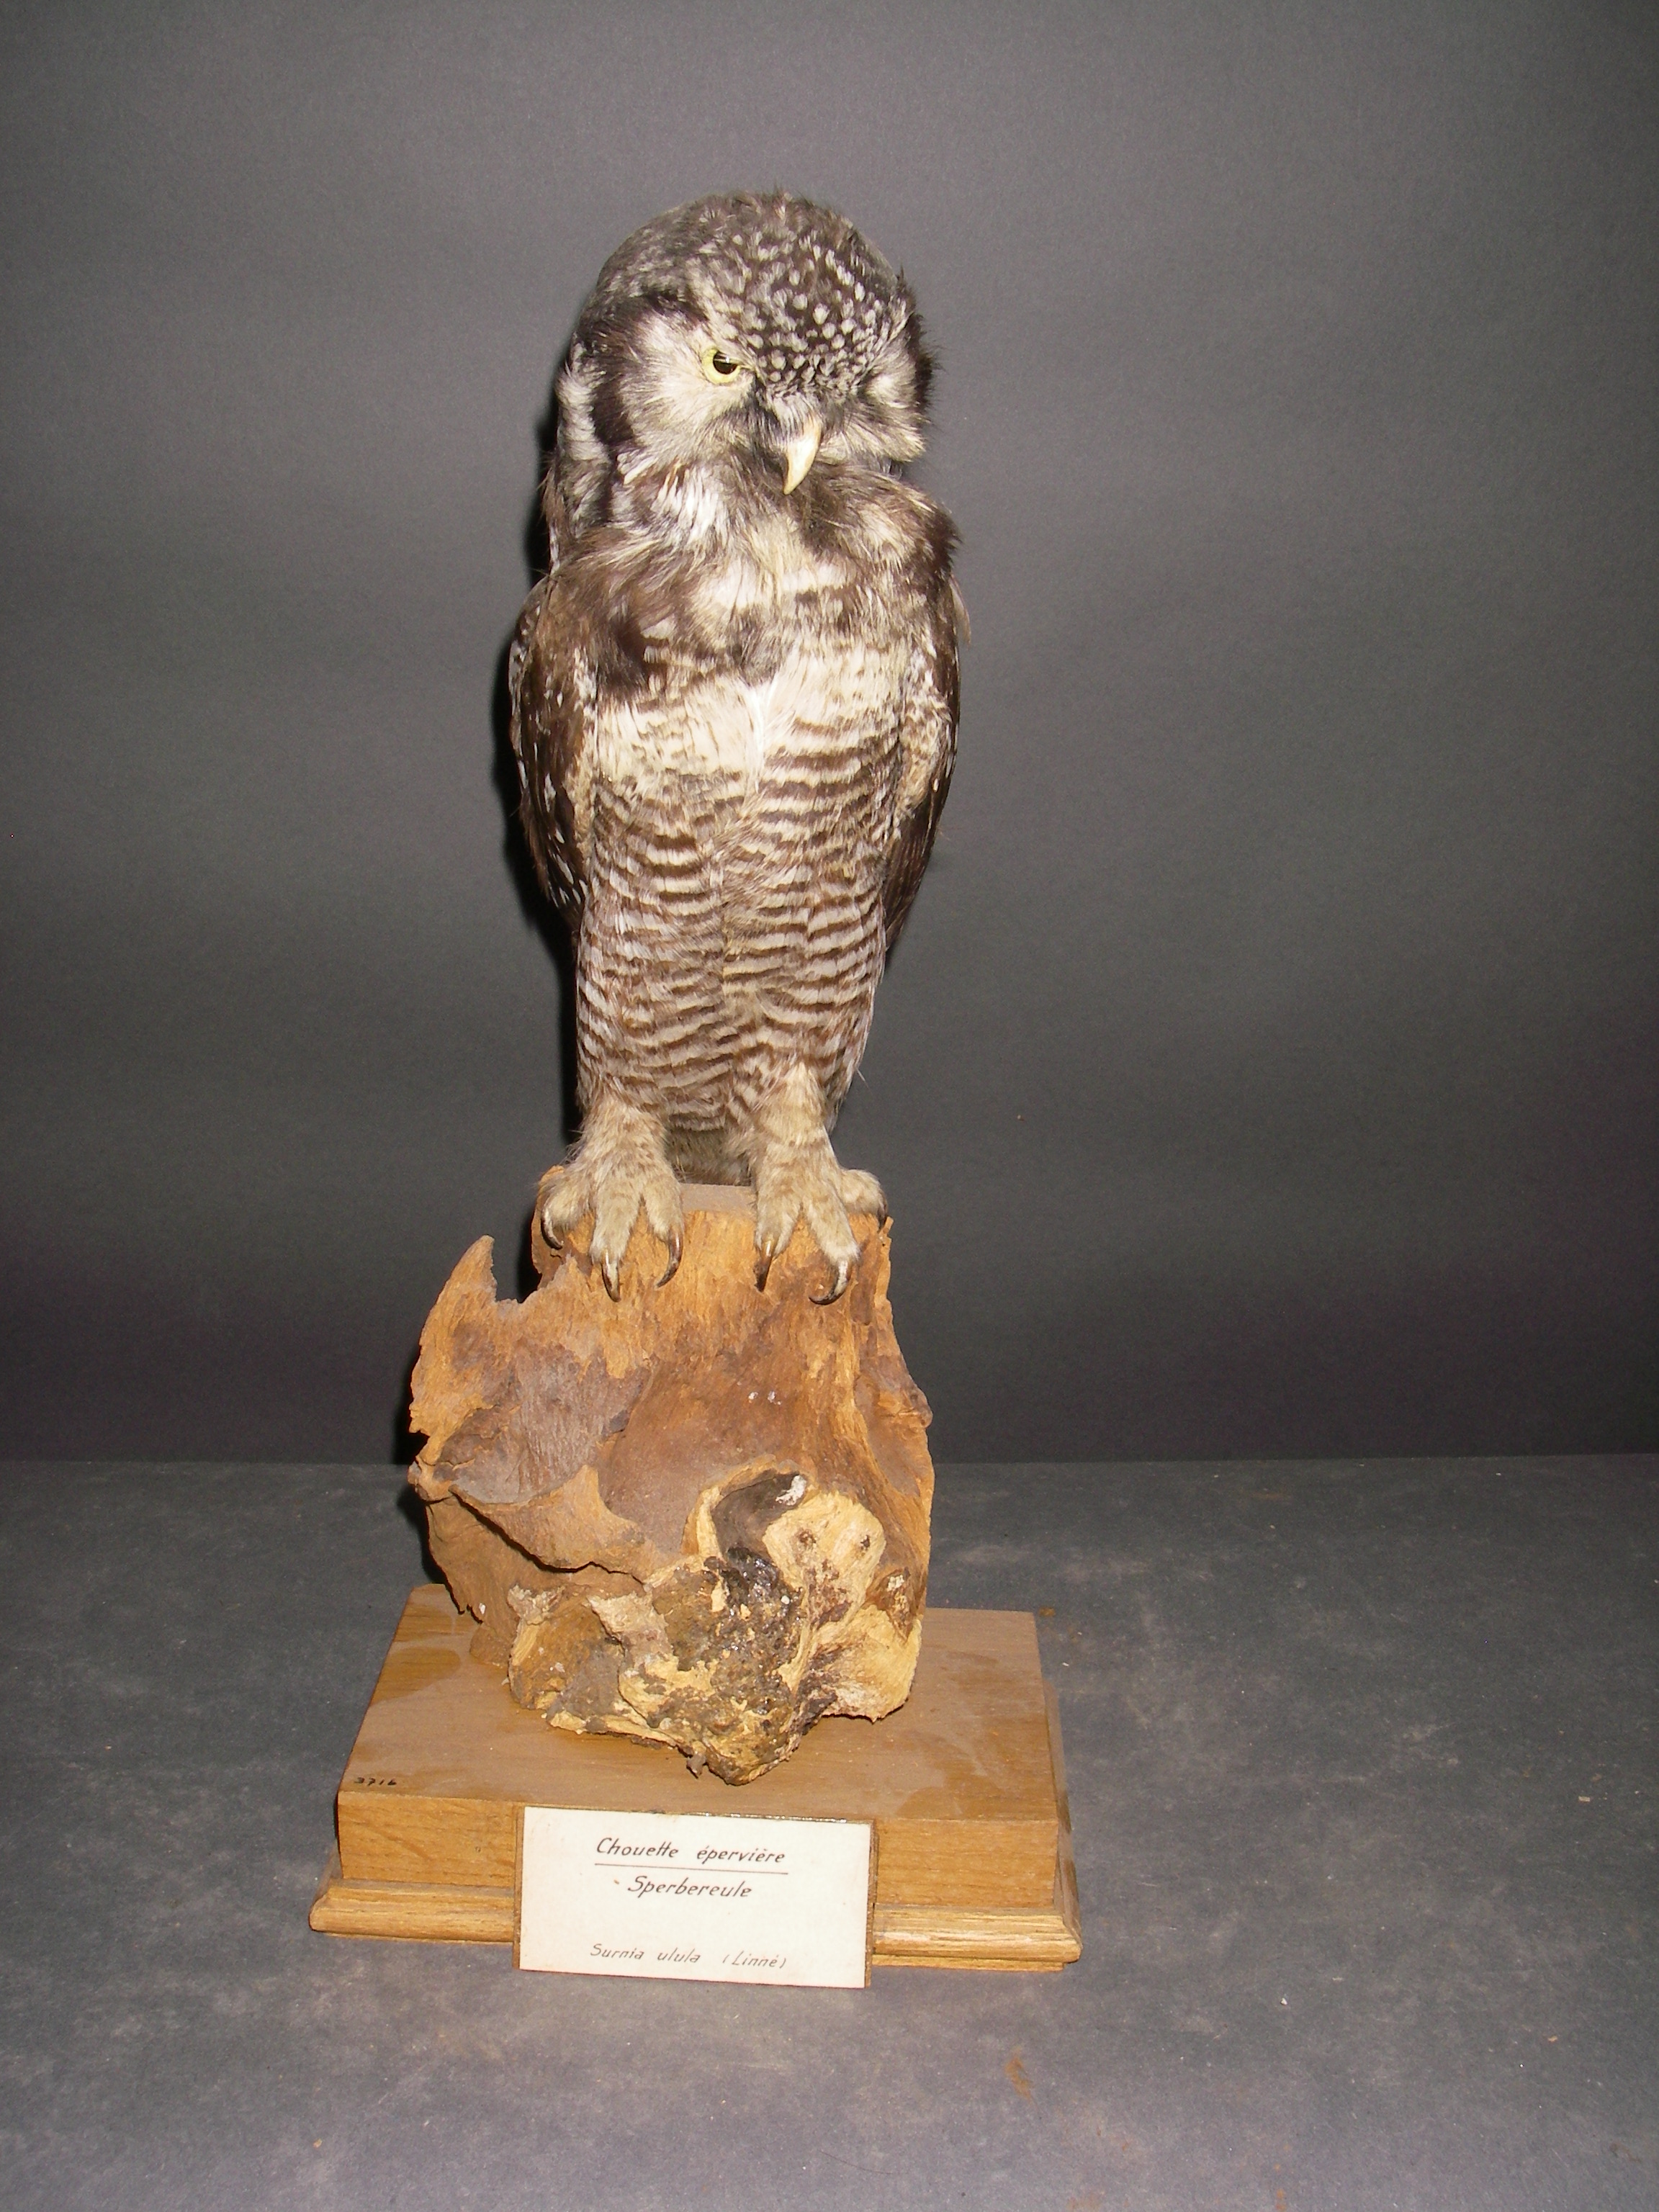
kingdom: Animalia
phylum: Chordata
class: Aves
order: Strigiformes
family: Strigidae
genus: Surnia
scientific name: Surnia ulula
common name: Northern hawk-owl
